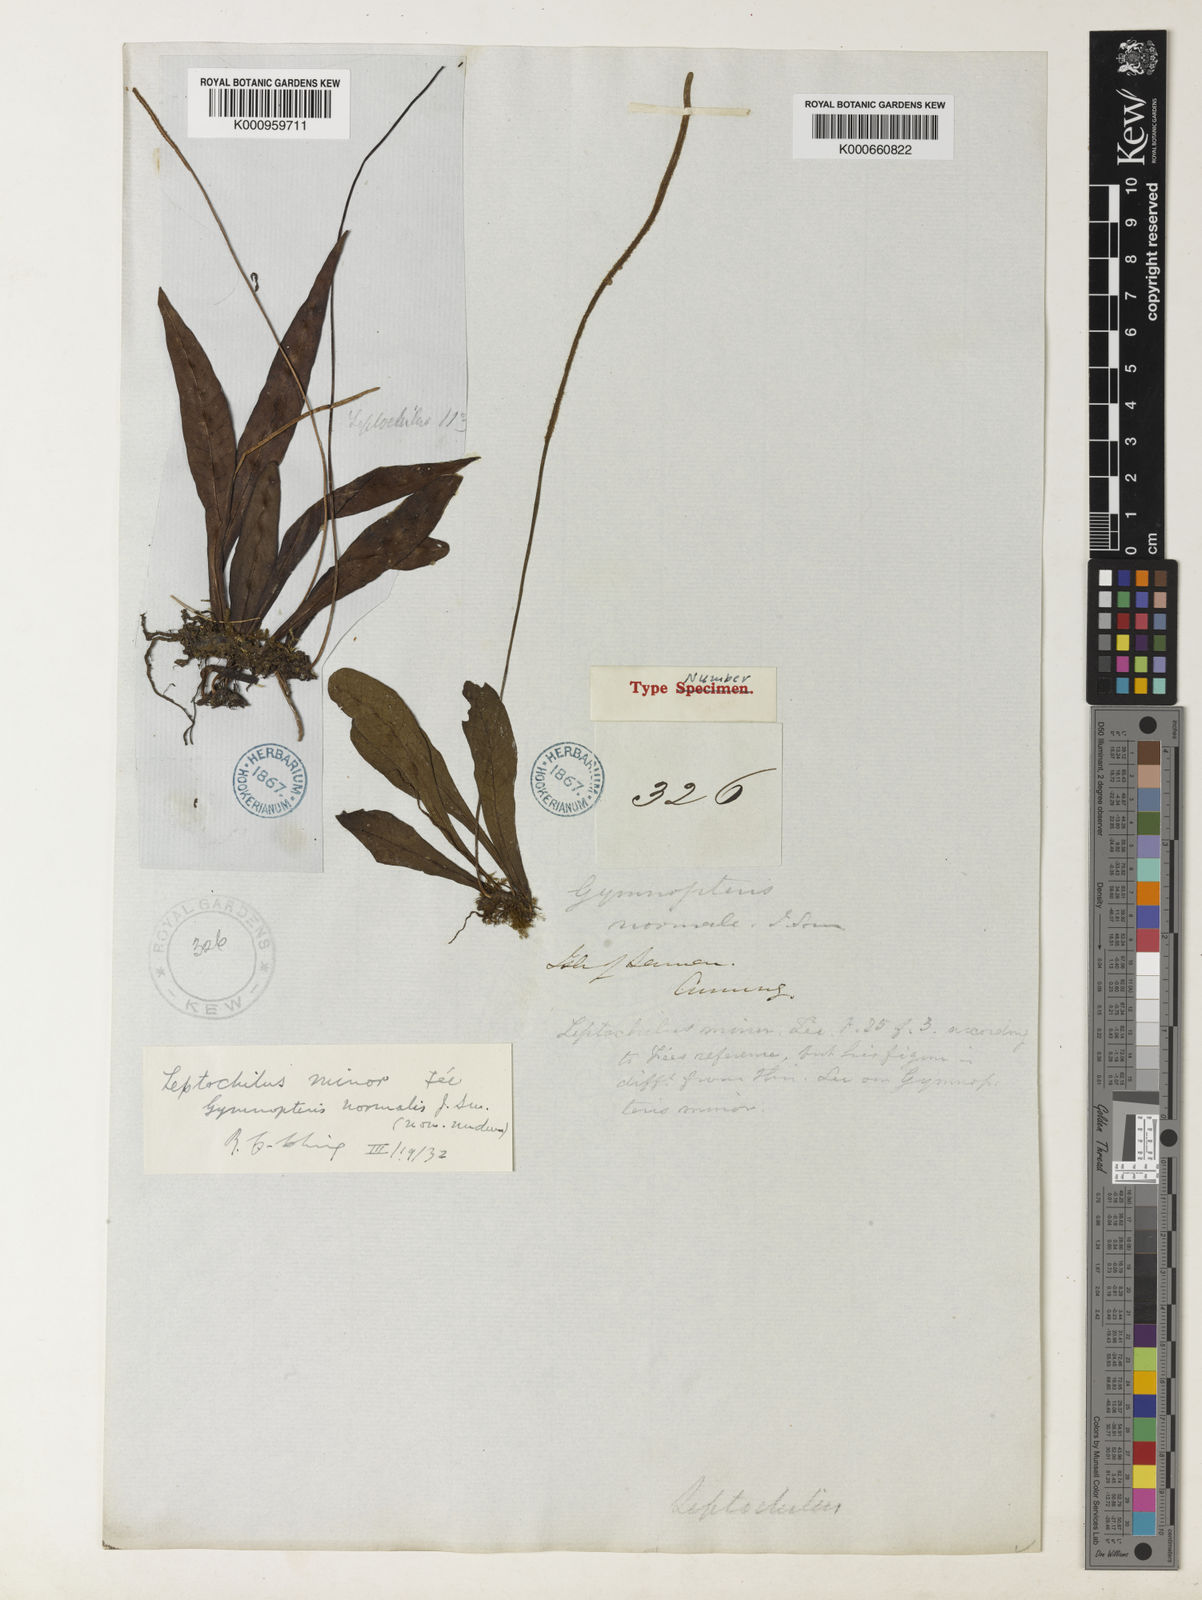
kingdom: Plantae
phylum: Tracheophyta
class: Polypodiopsida
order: Polypodiales
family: Polypodiaceae
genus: Leptochilus
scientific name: Leptochilus
